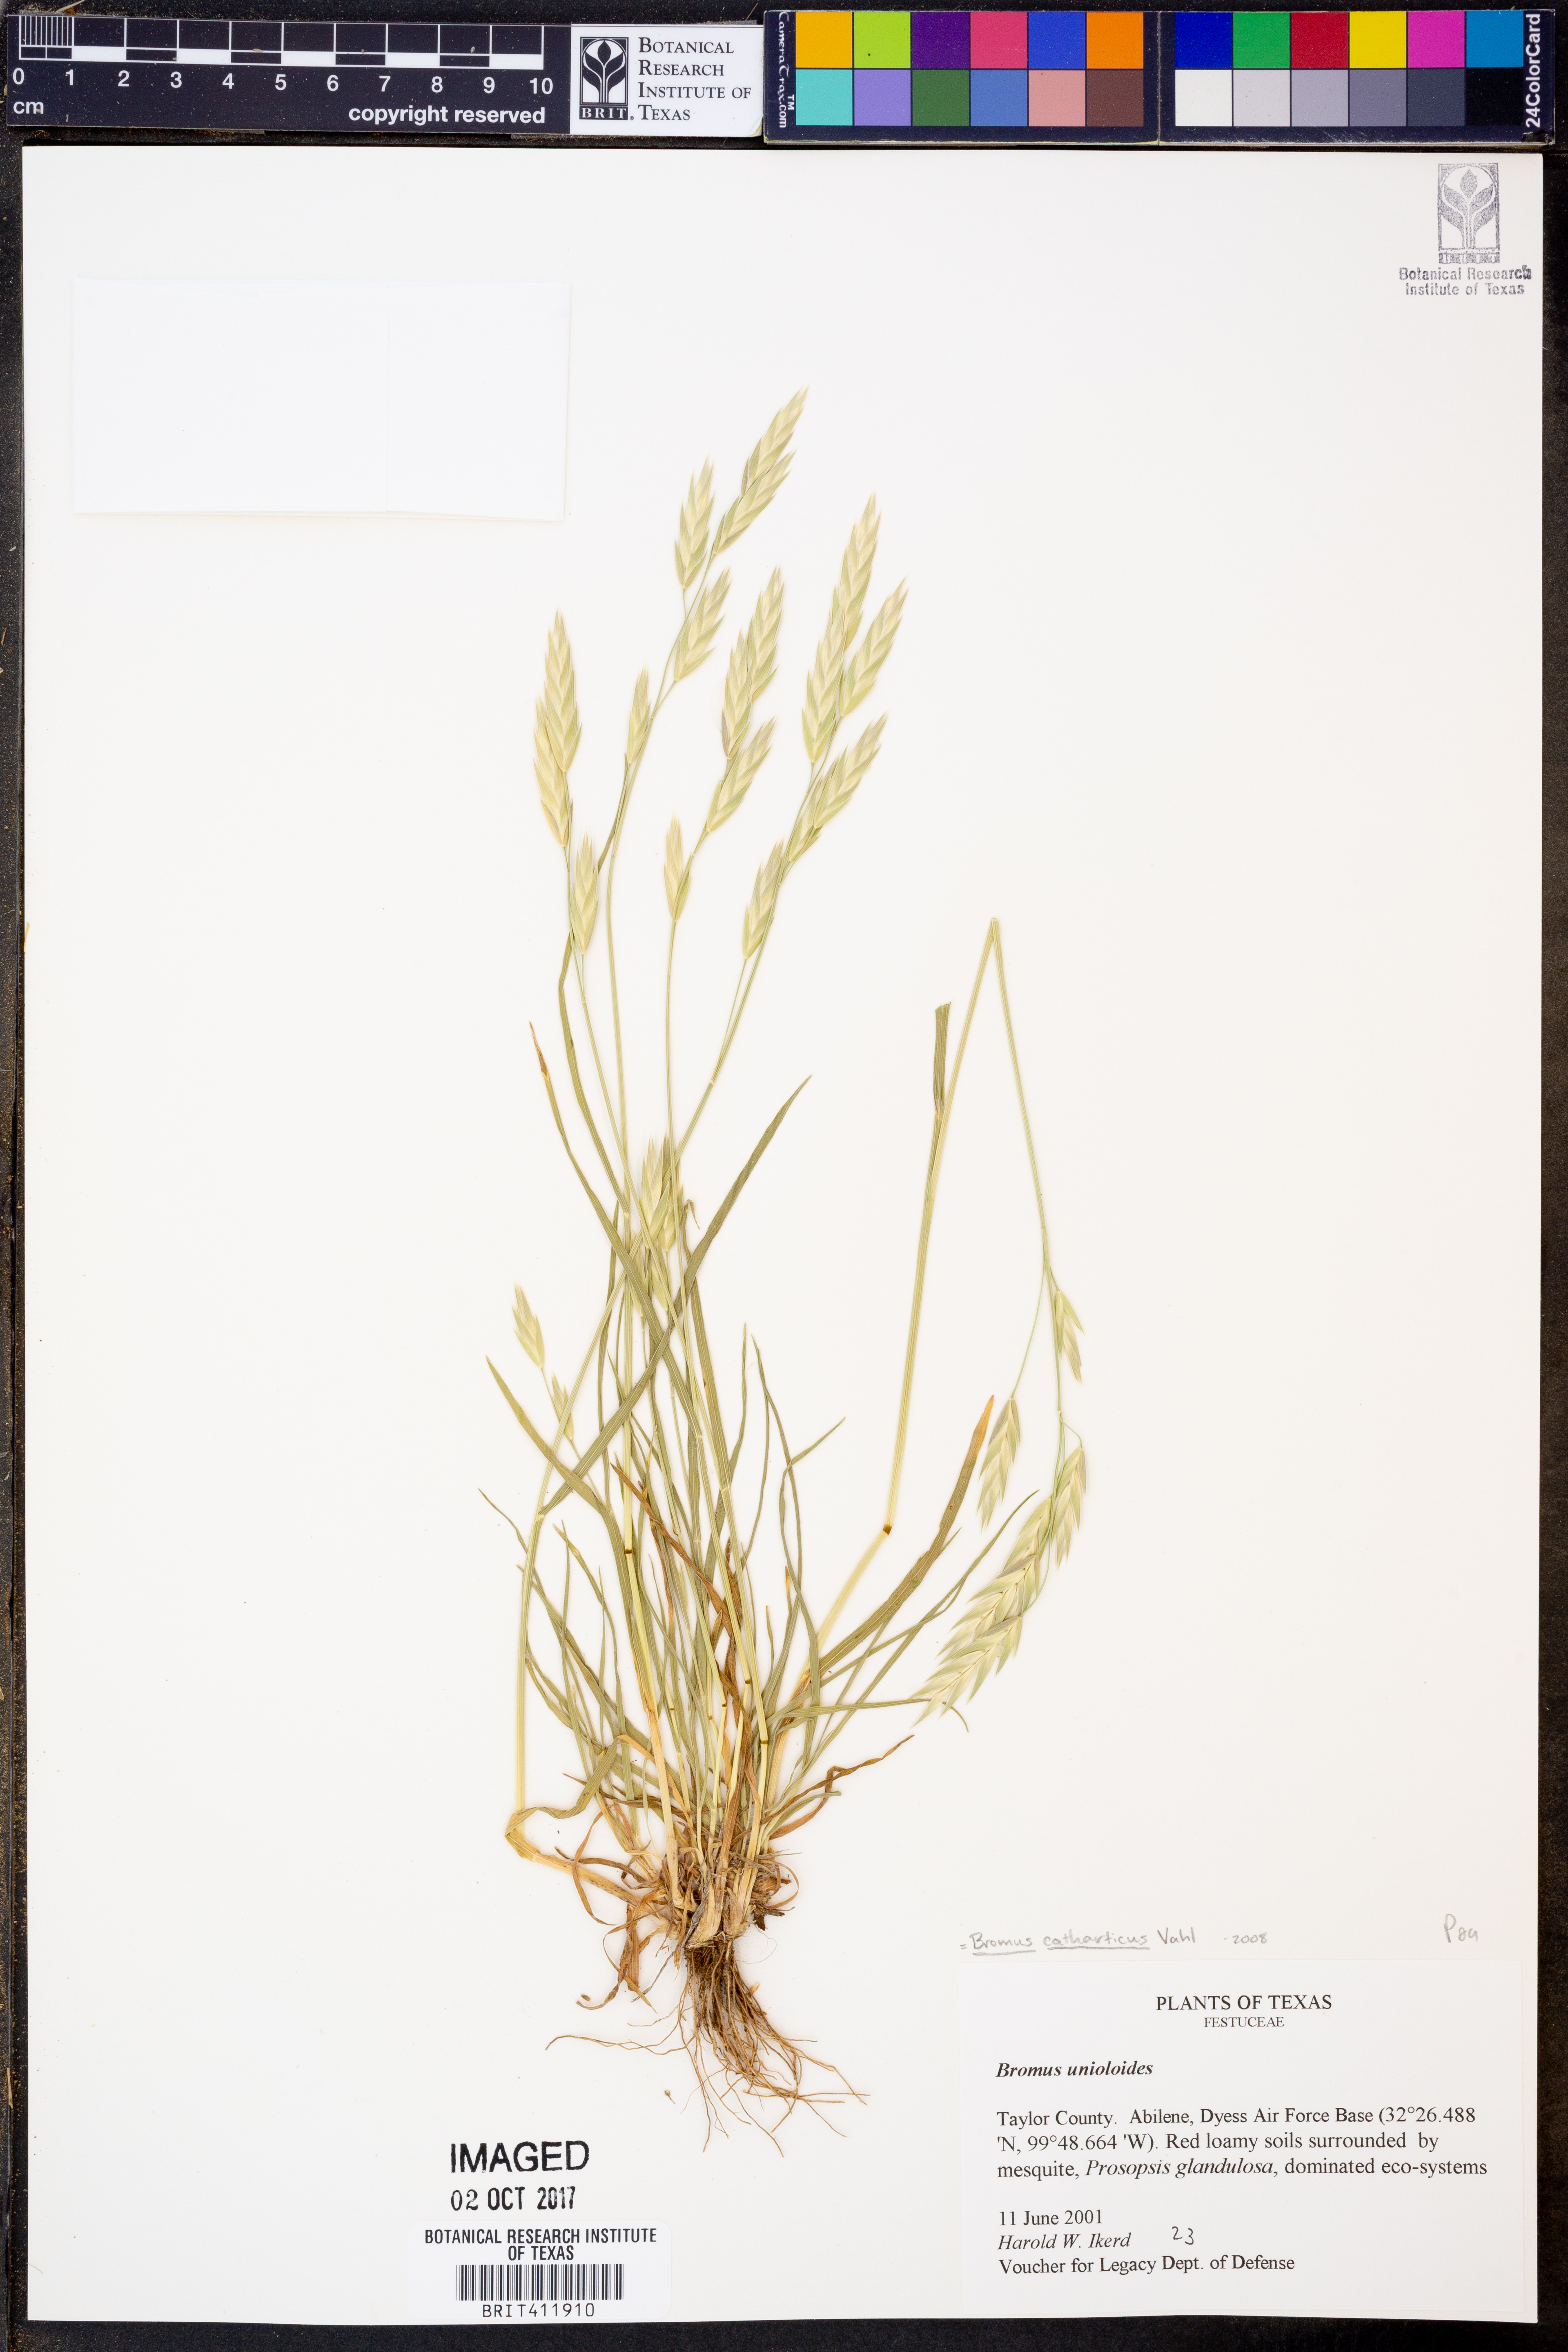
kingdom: Plantae
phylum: Tracheophyta
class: Liliopsida
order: Poales
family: Poaceae
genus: Bromus
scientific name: Bromus catharticus
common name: Rescuegrass
